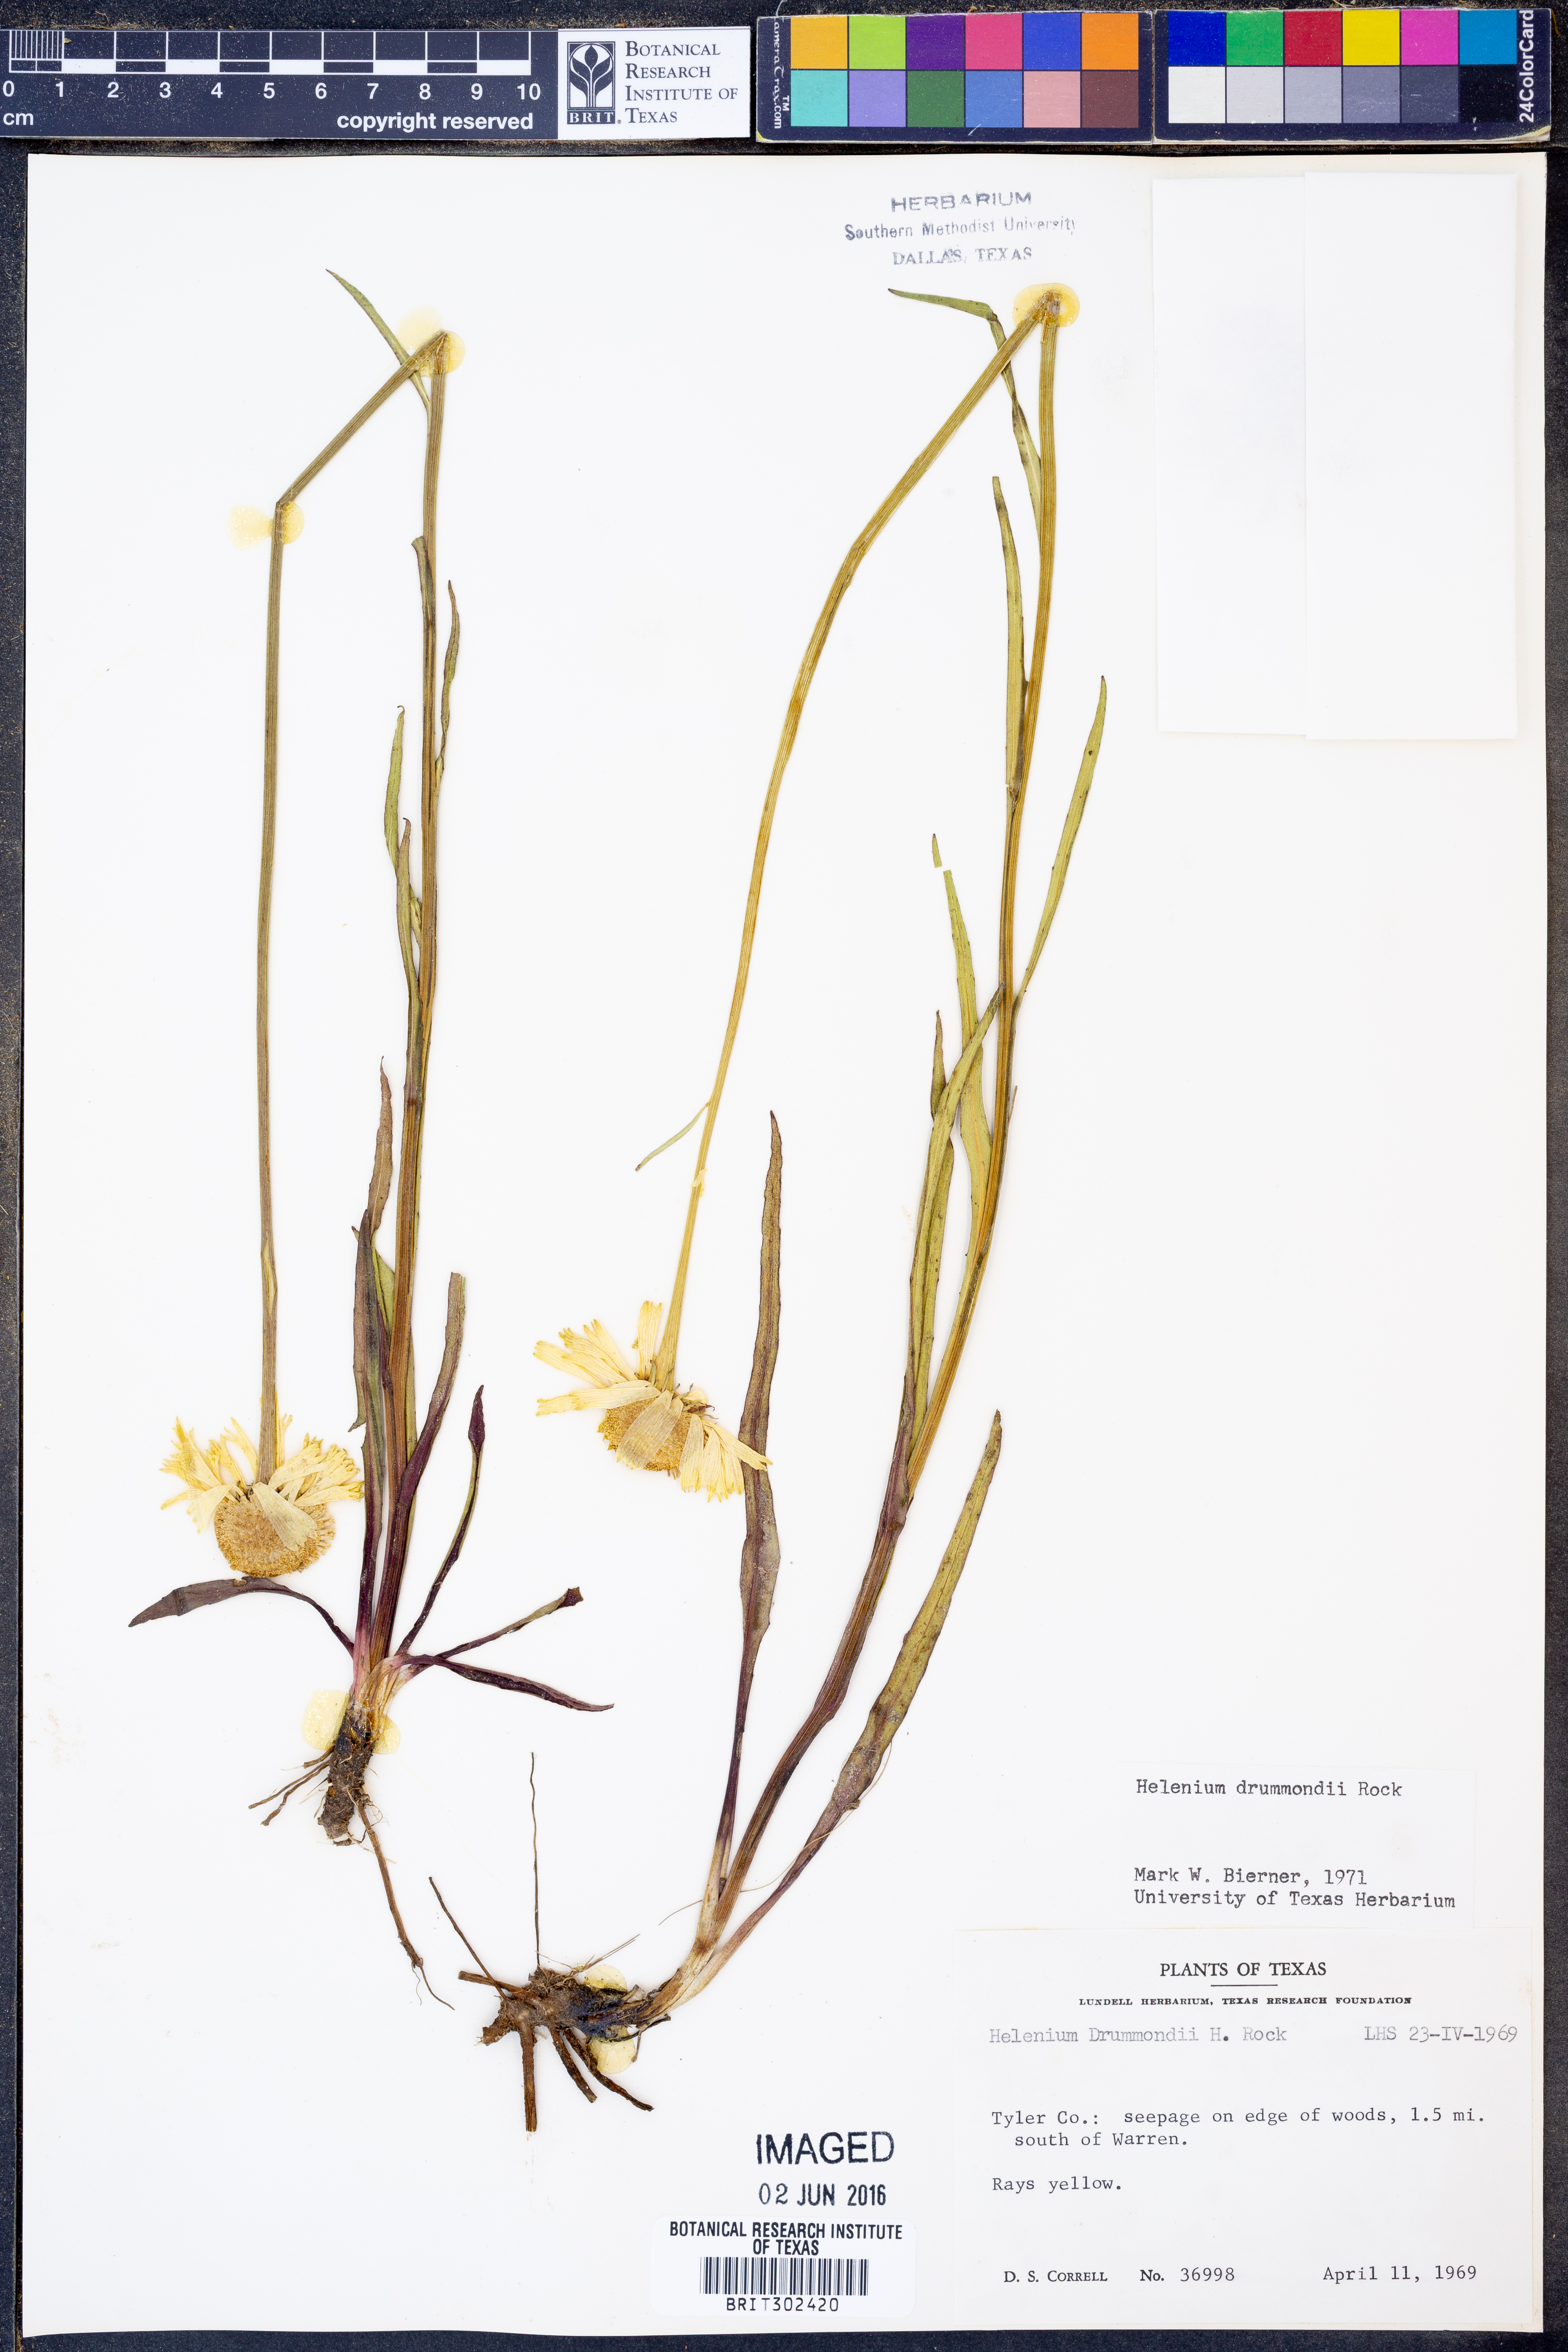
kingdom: Plantae
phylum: Tracheophyta
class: Magnoliopsida
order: Asterales
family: Asteraceae
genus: Helenium
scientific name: Helenium drummondii
